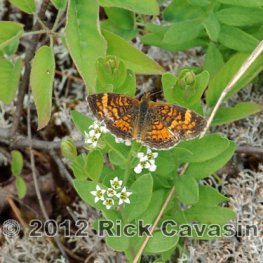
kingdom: Animalia
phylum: Arthropoda
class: Insecta
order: Lepidoptera
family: Nymphalidae
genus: Phyciodes
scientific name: Phyciodes tharos
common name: Pearl Crescent
